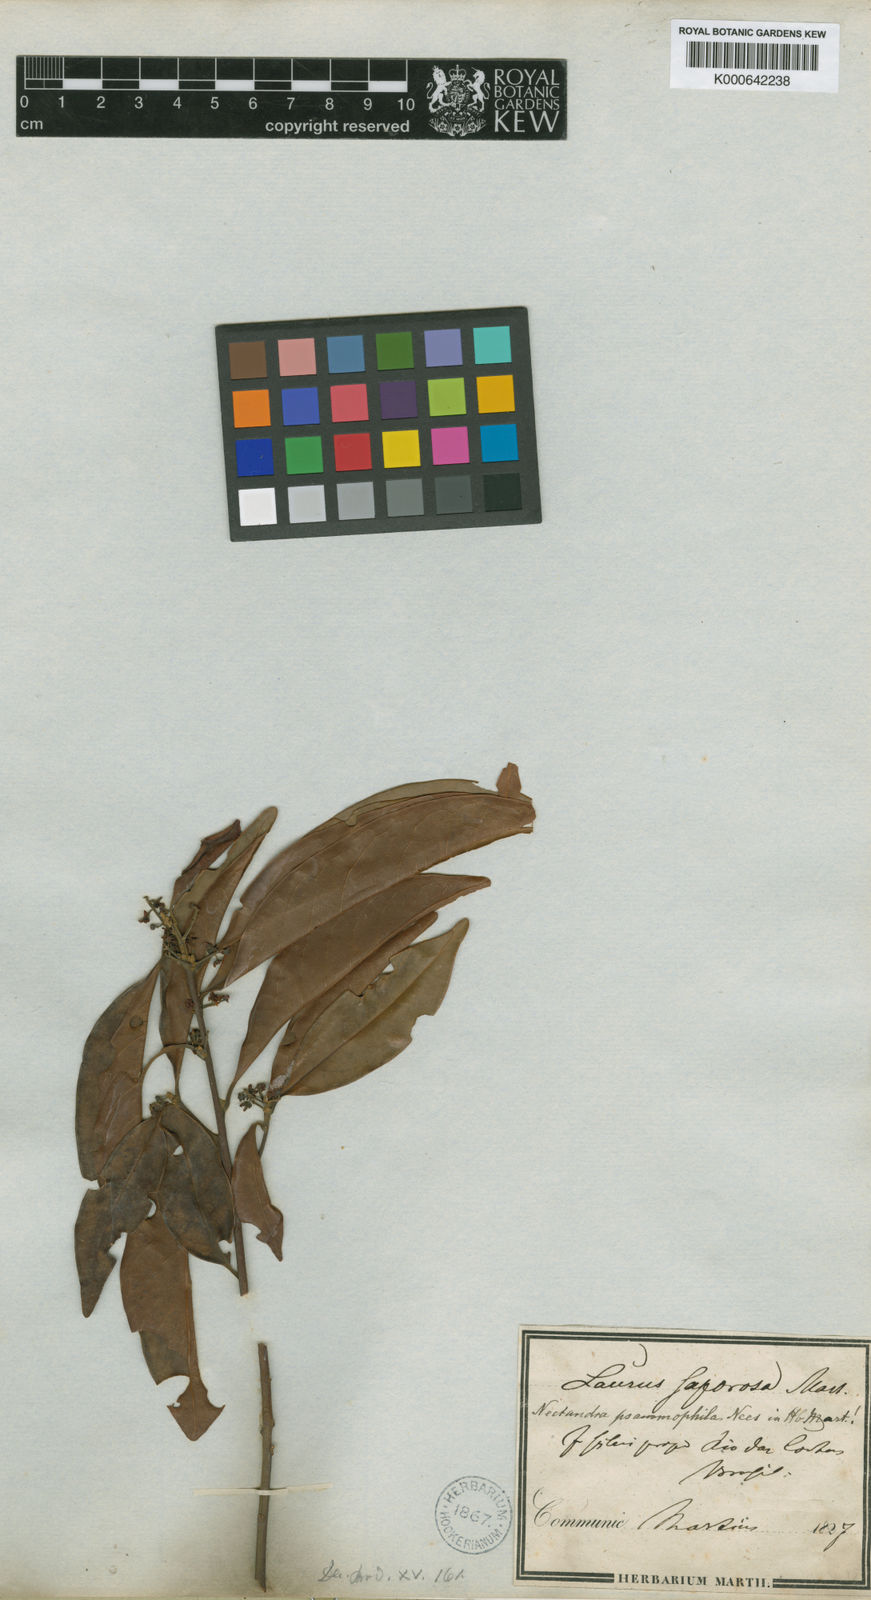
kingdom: Plantae
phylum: Tracheophyta
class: Magnoliopsida
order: Laurales
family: Lauraceae
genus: Nectandra
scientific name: Nectandra psammophila
